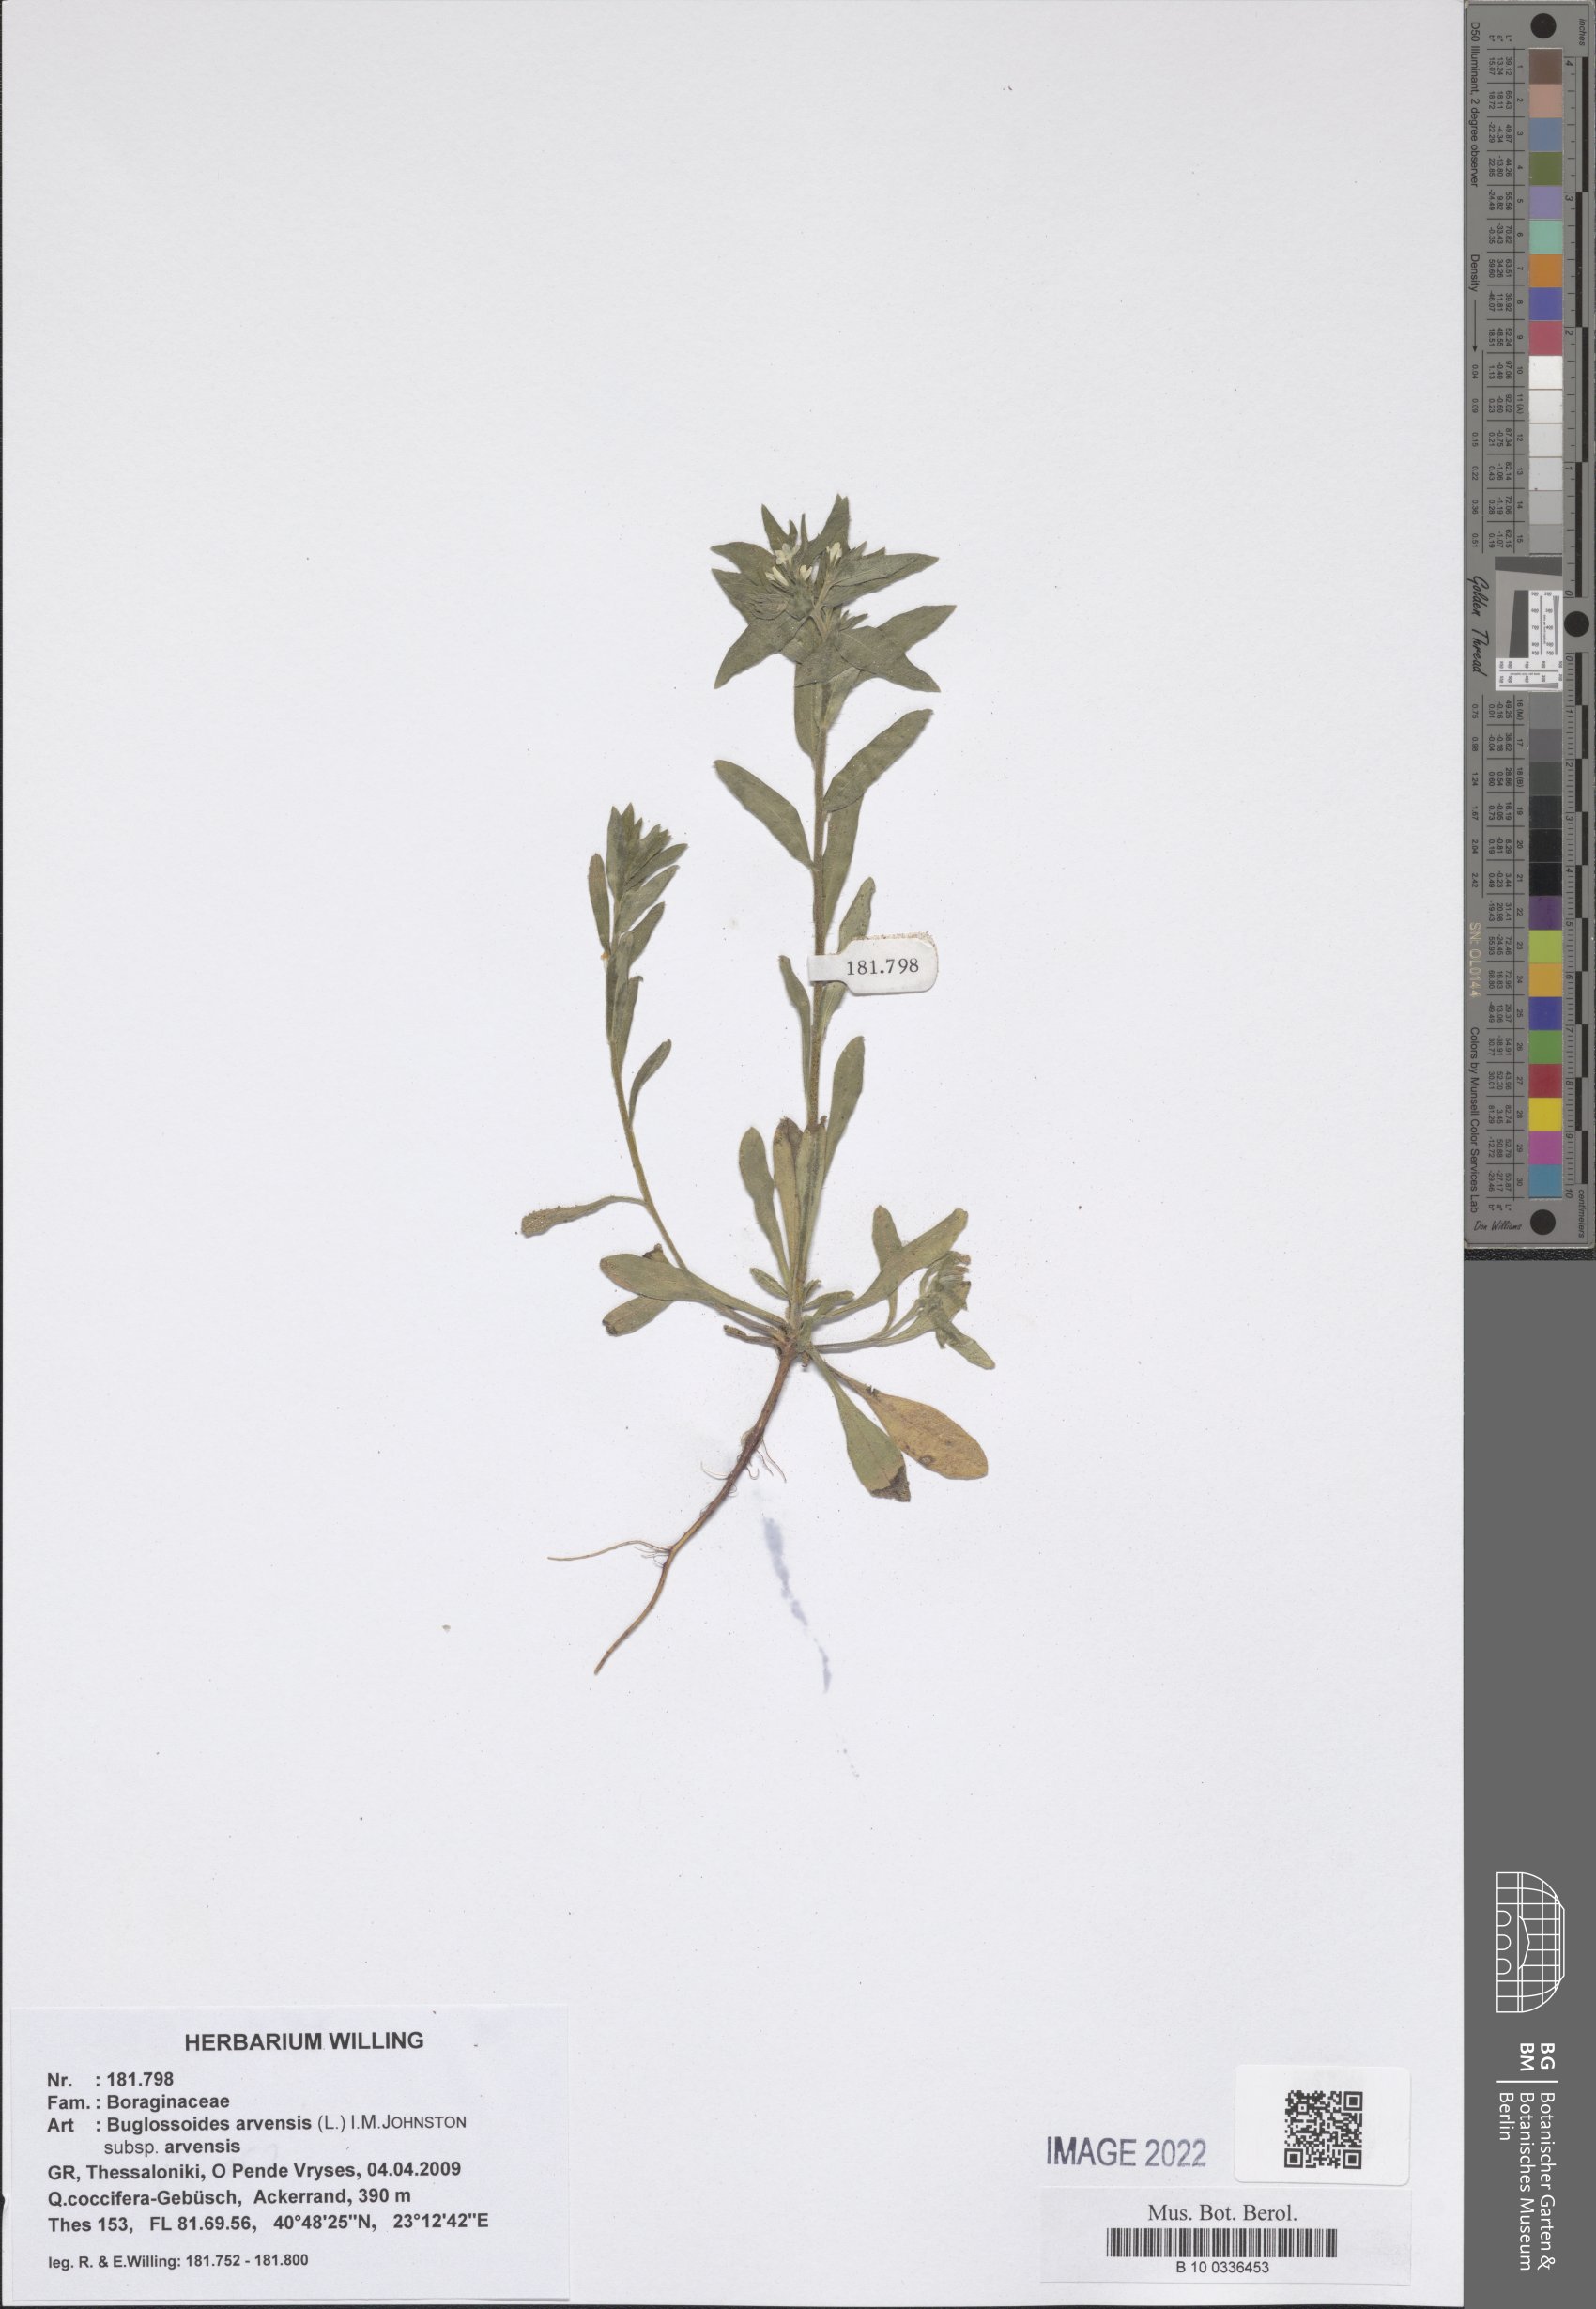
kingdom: Plantae
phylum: Tracheophyta
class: Magnoliopsida
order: Boraginales
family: Boraginaceae
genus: Buglossoides
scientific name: Buglossoides arvensis
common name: Corn gromwell
